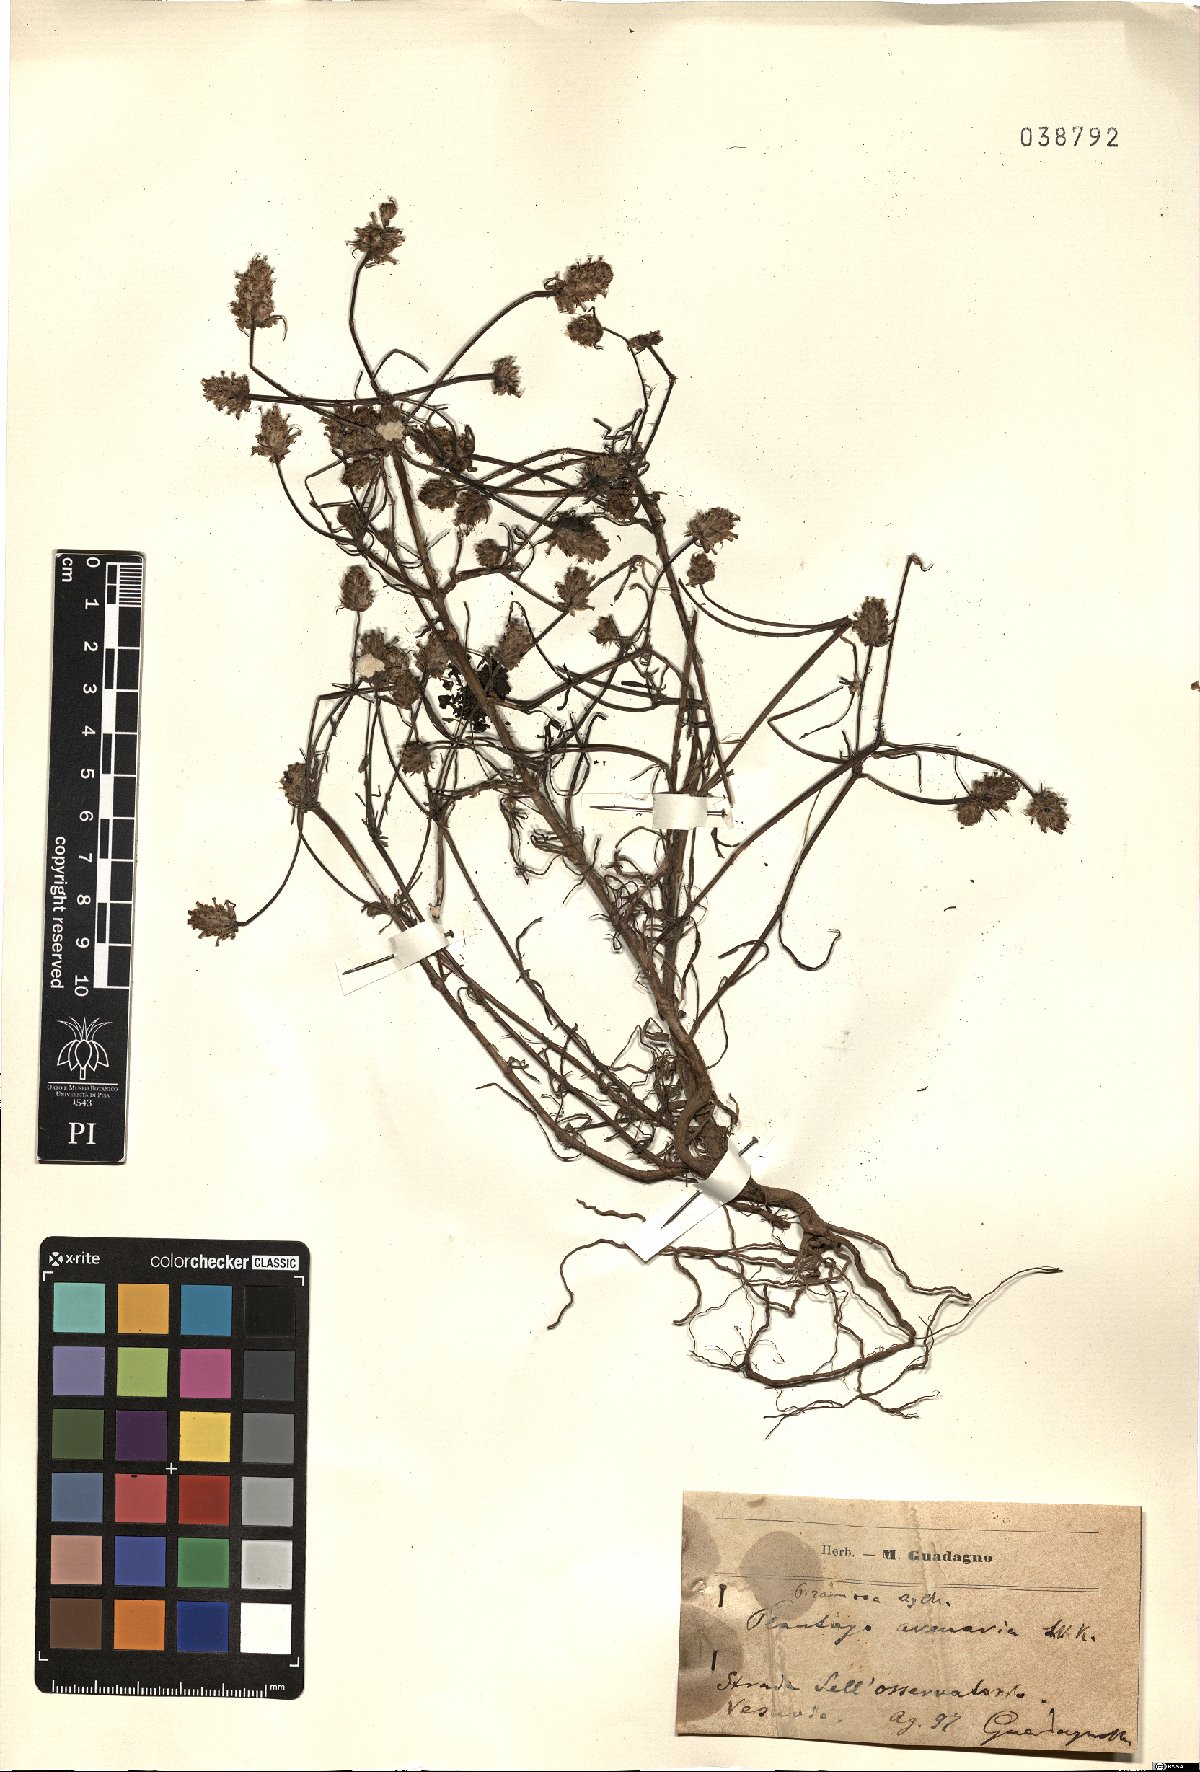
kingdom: Plantae
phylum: Tracheophyta
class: Magnoliopsida
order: Lamiales
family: Plantaginaceae
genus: Plantago
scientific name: Plantago arenaria
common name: Branched plantain
